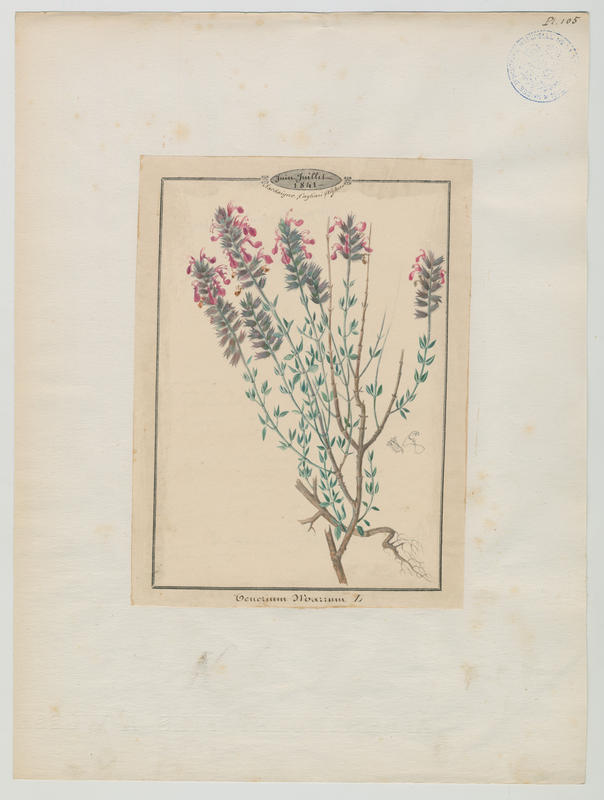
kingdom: Plantae
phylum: Tracheophyta
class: Magnoliopsida
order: Lamiales
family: Lamiaceae
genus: Teucrium
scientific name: Teucrium marum
